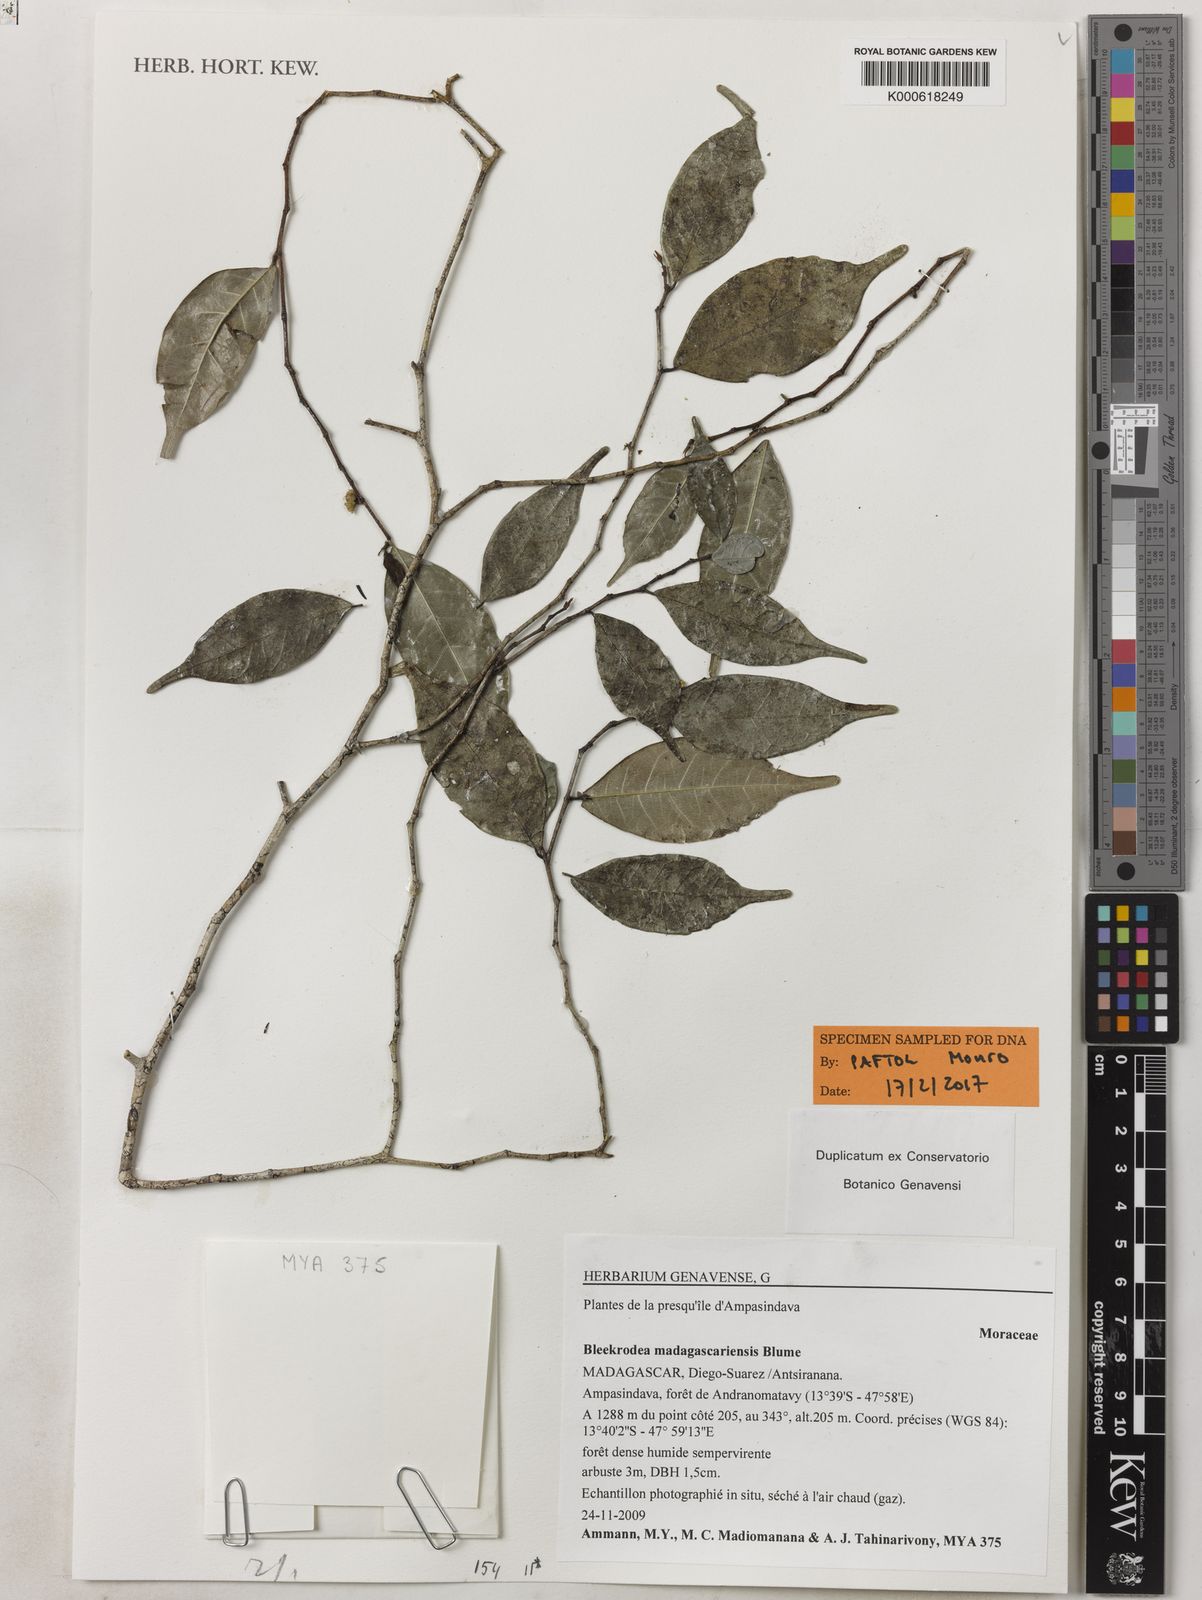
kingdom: Plantae
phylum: Tracheophyta
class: Magnoliopsida
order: Rosales
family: Moraceae
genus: Bleekrodea
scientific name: Bleekrodea madagascariensis
